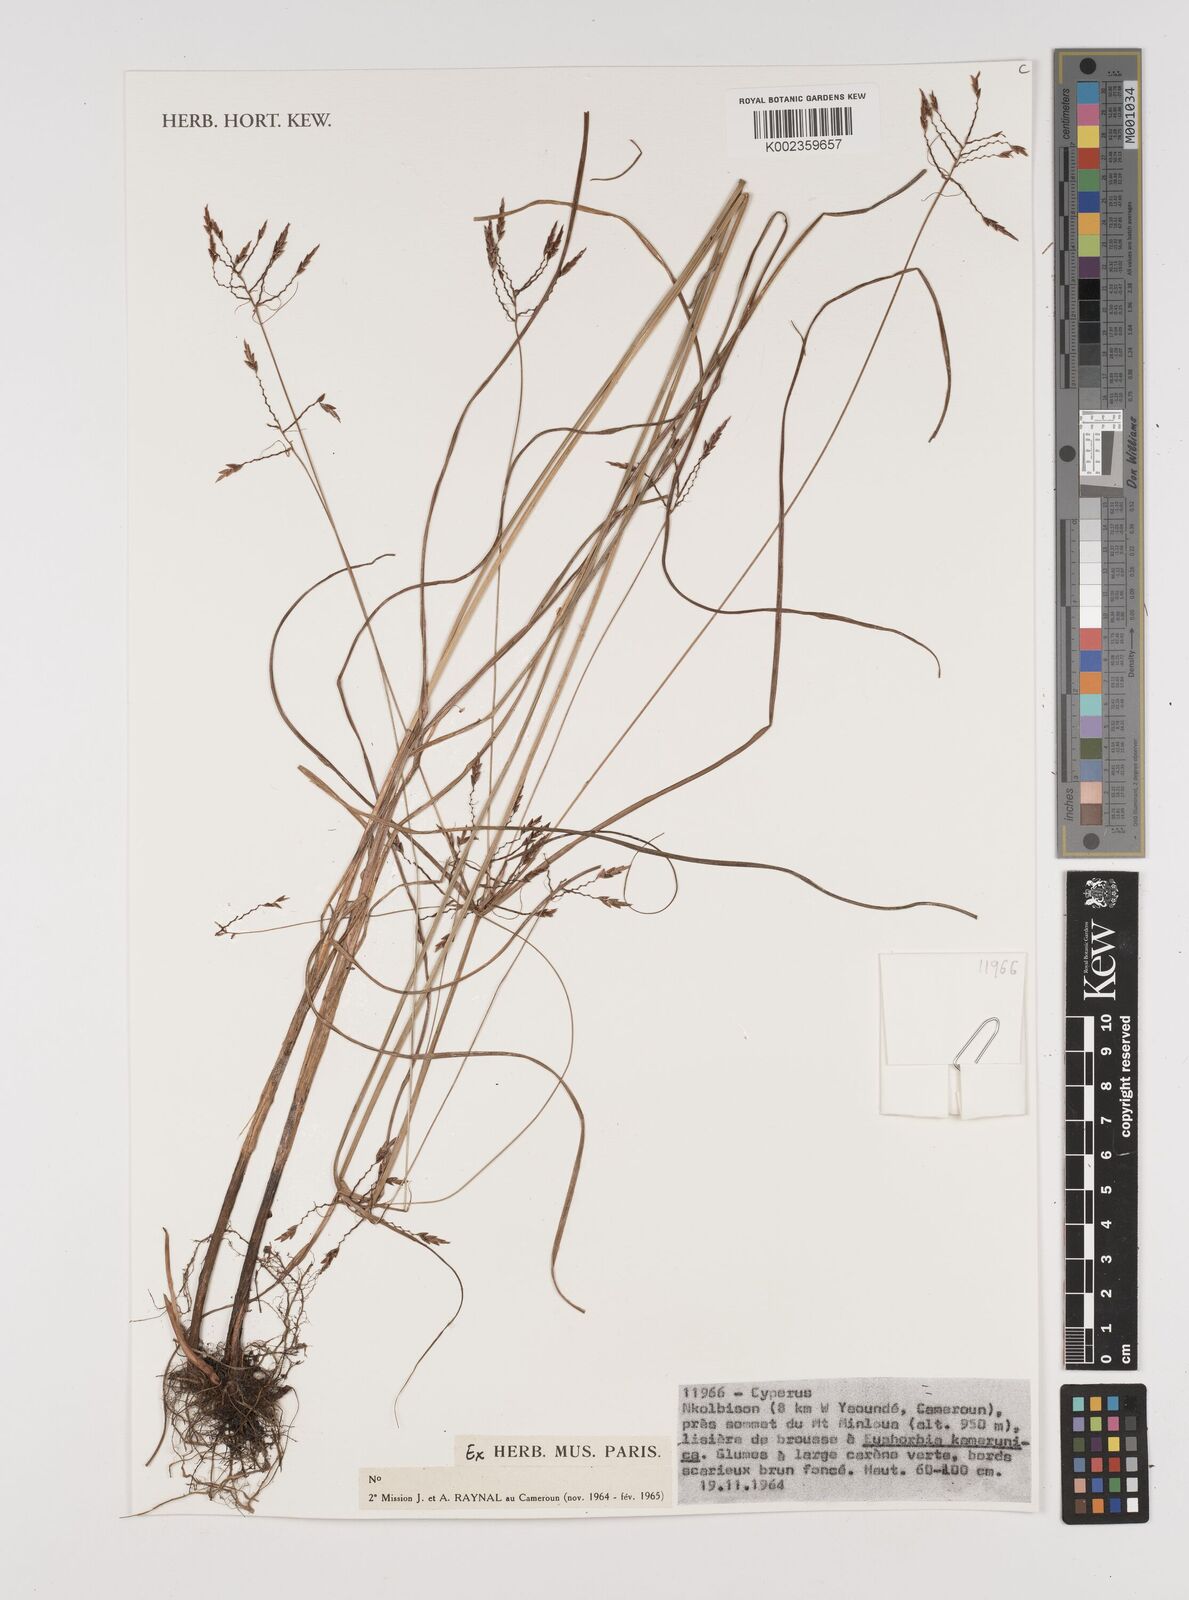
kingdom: Plantae
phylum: Tracheophyta
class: Liliopsida
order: Poales
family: Cyperaceae
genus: Cyperus
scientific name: Cyperus
